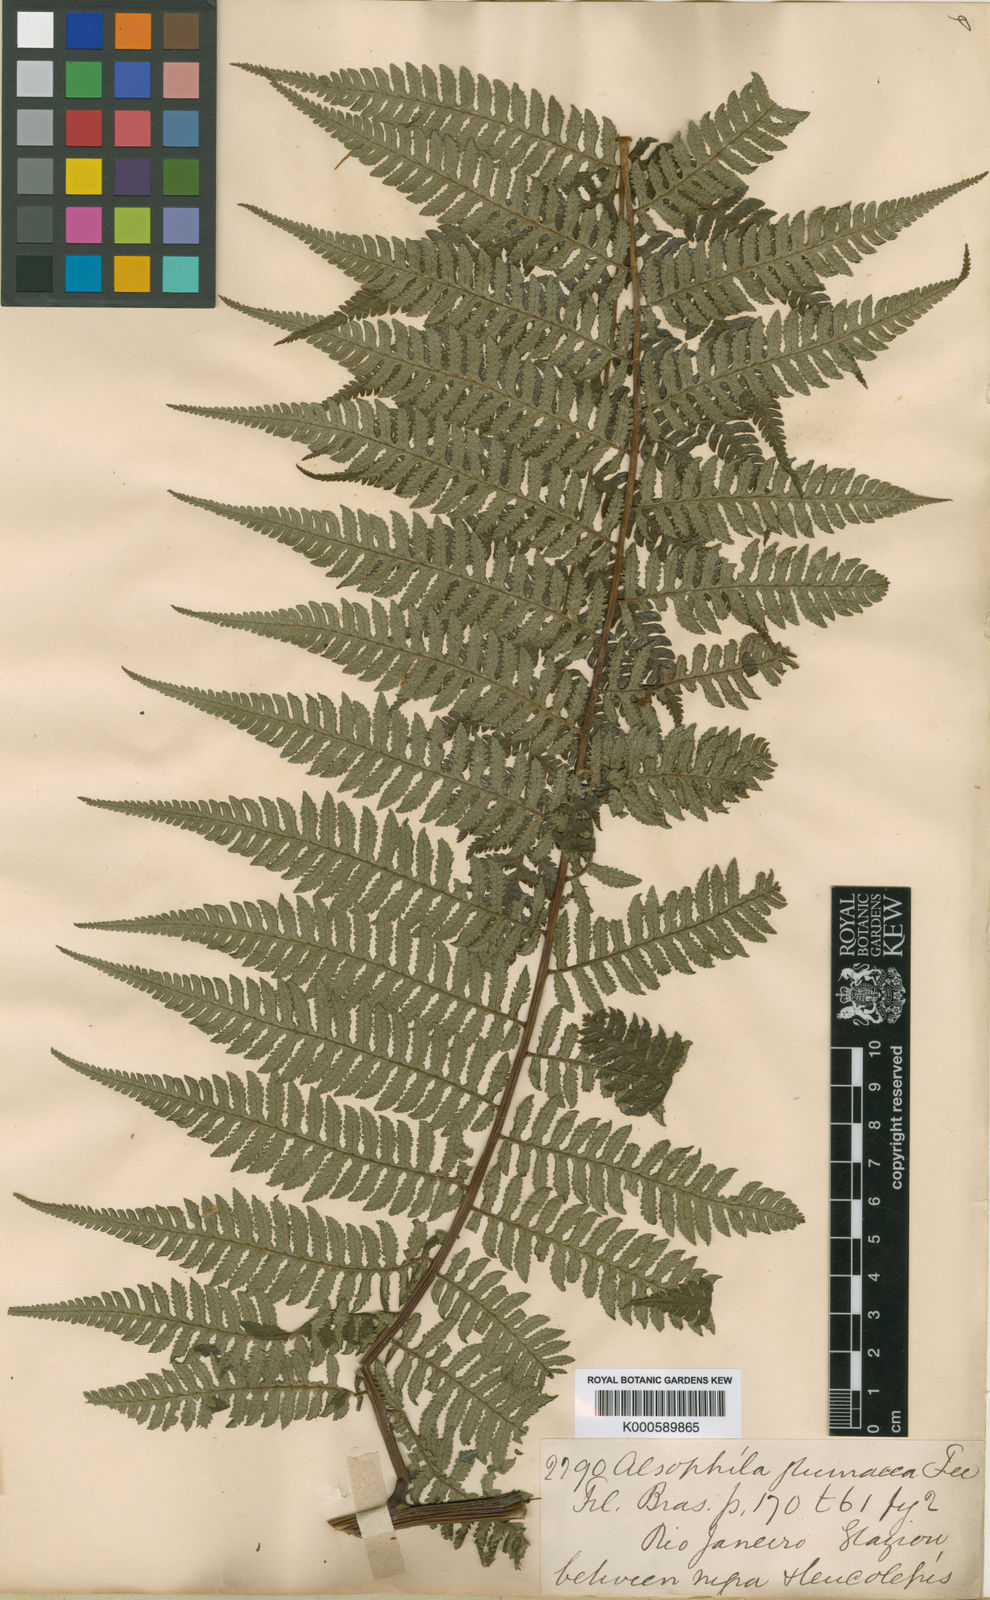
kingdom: Plantae
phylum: Tracheophyta
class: Polypodiopsida
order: Cyatheales
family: Cyatheaceae
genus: Sphaeropteris
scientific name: Sphaeropteris leucolepis
